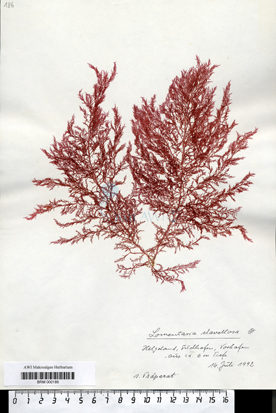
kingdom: Plantae
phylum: Rhodophyta
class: Florideophyceae
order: Rhodymeniales
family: Lomentariaceae
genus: Lomentaria
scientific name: Lomentaria clavellosa
